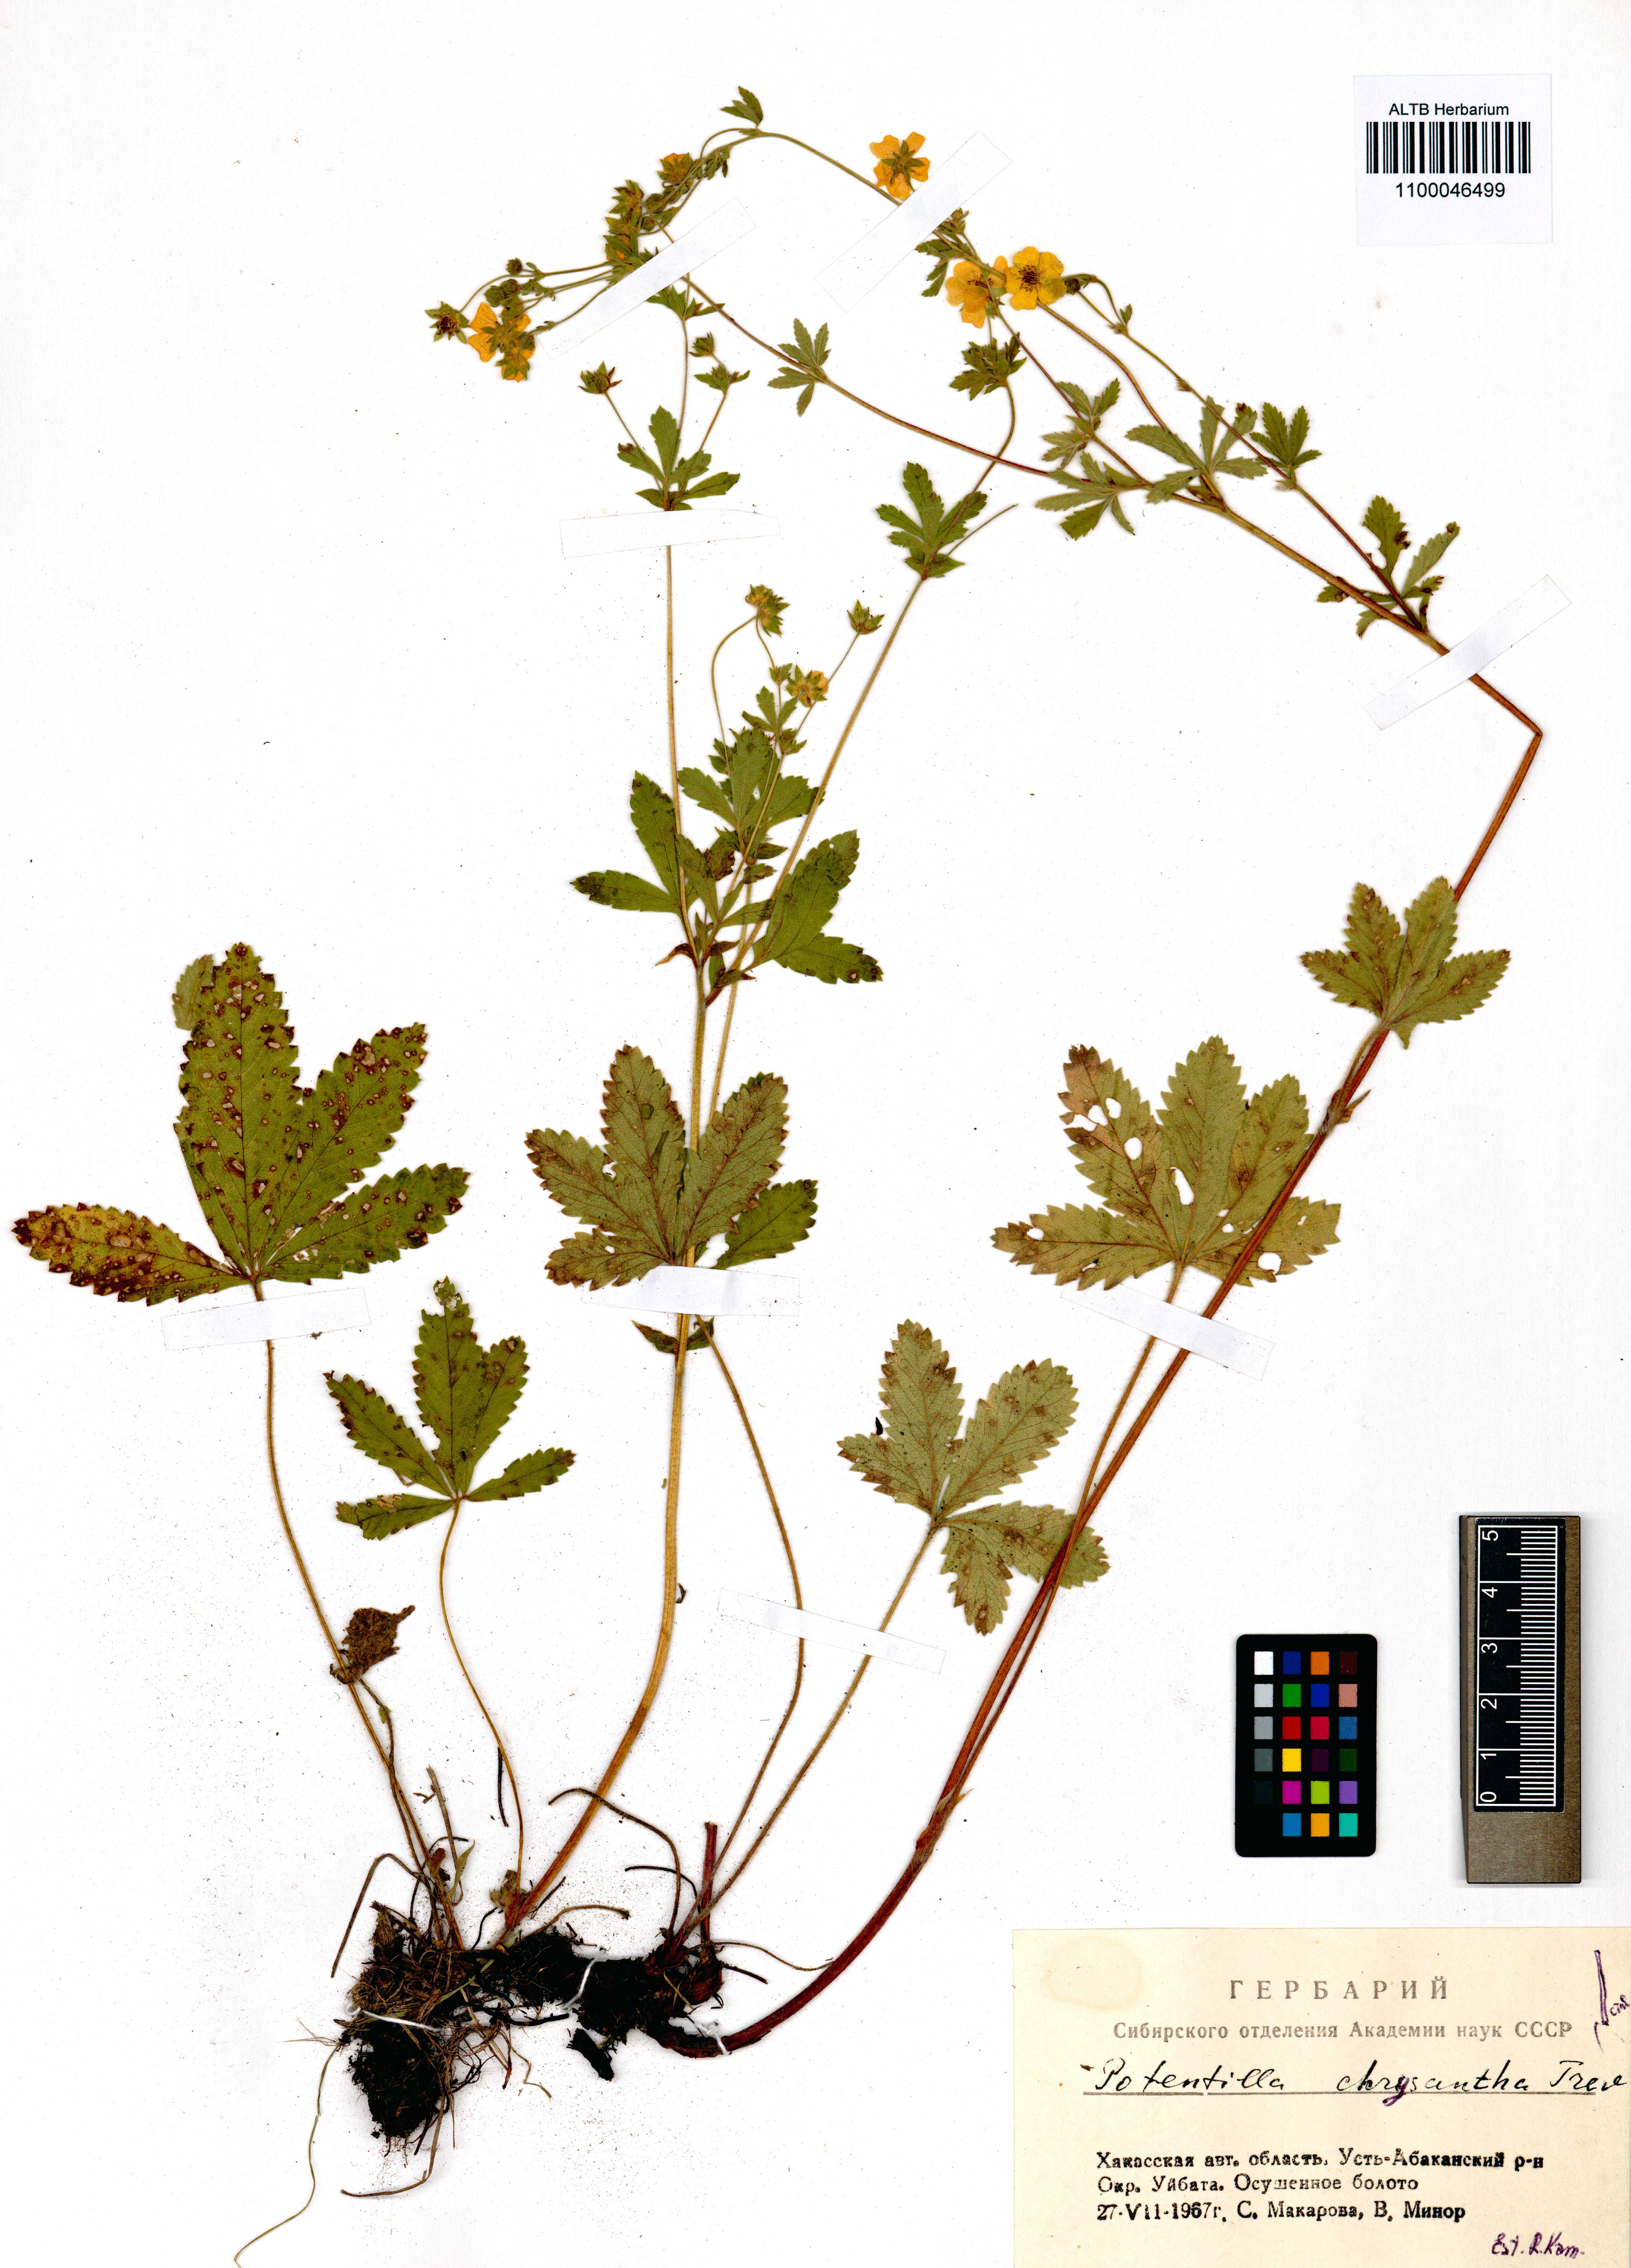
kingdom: Plantae
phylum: Tracheophyta
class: Magnoliopsida
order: Rosales
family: Rosaceae
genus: Potentilla
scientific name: Potentilla chrysantha
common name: Thuringian cinquefoil
